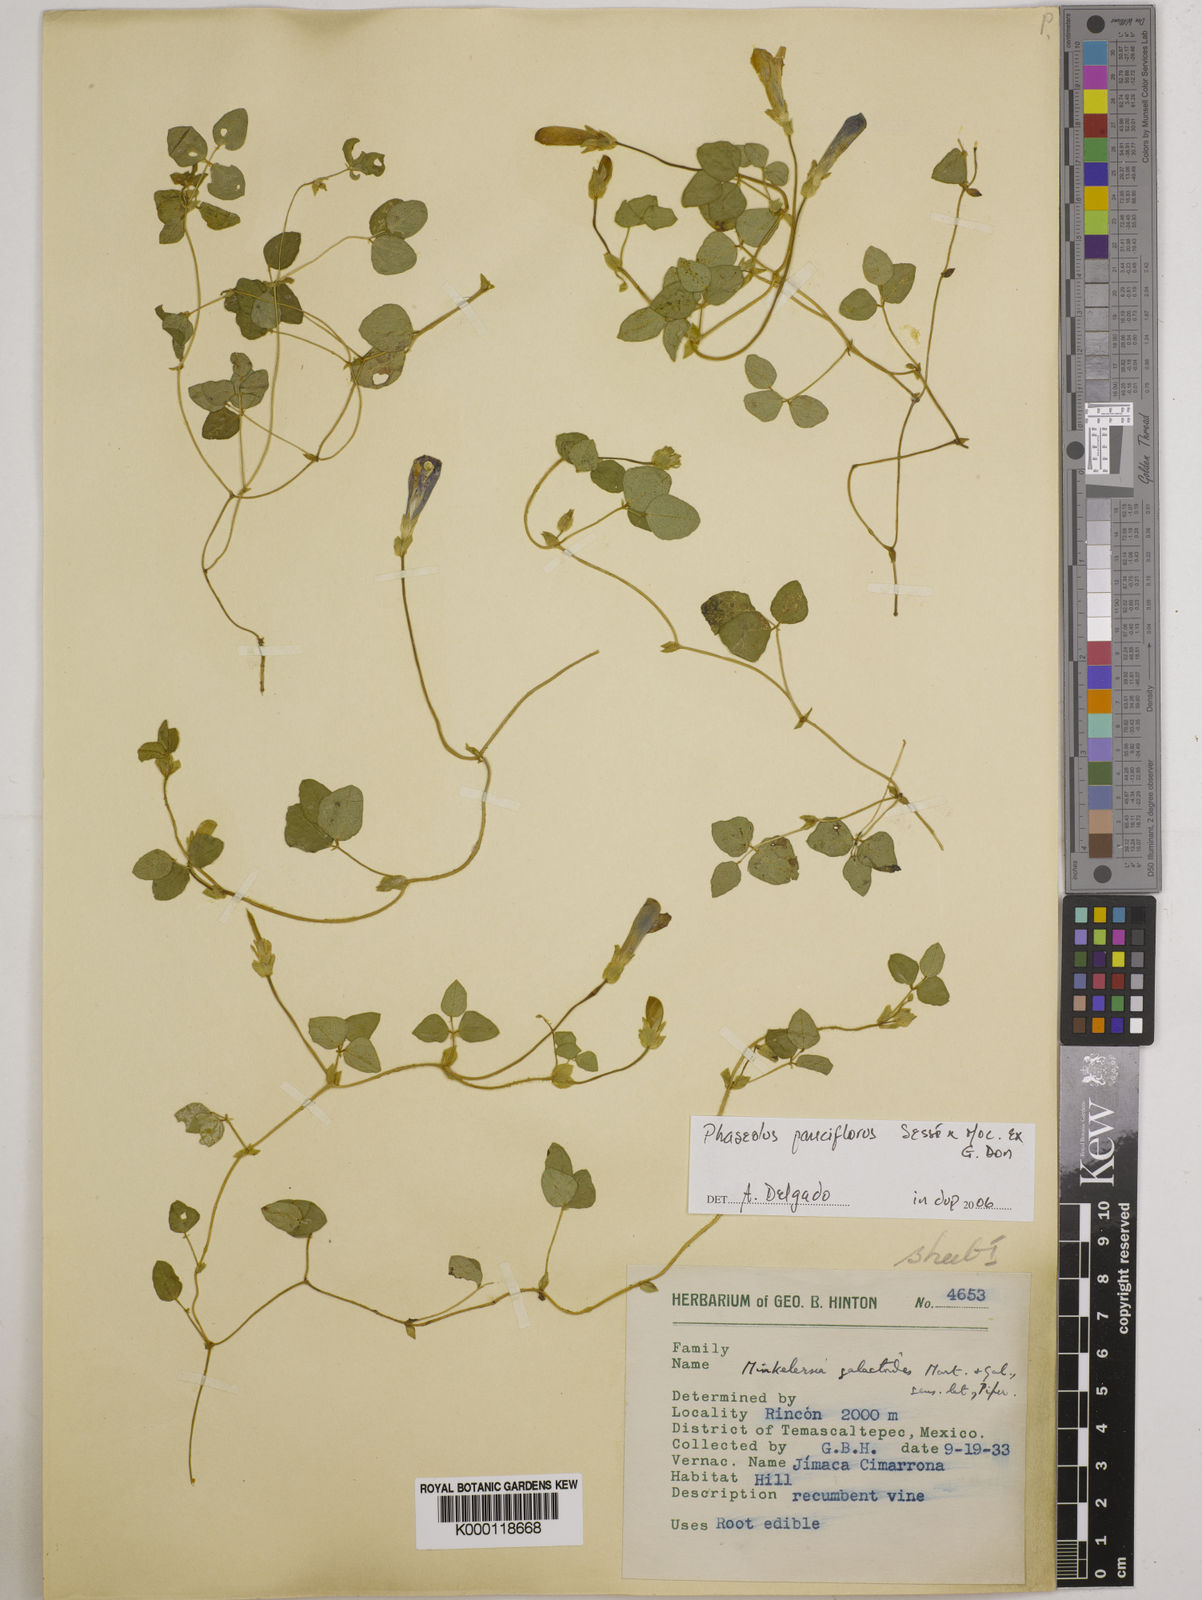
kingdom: Plantae
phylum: Tracheophyta
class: Magnoliopsida
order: Fabales
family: Fabaceae
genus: Phaseolus
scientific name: Phaseolus
